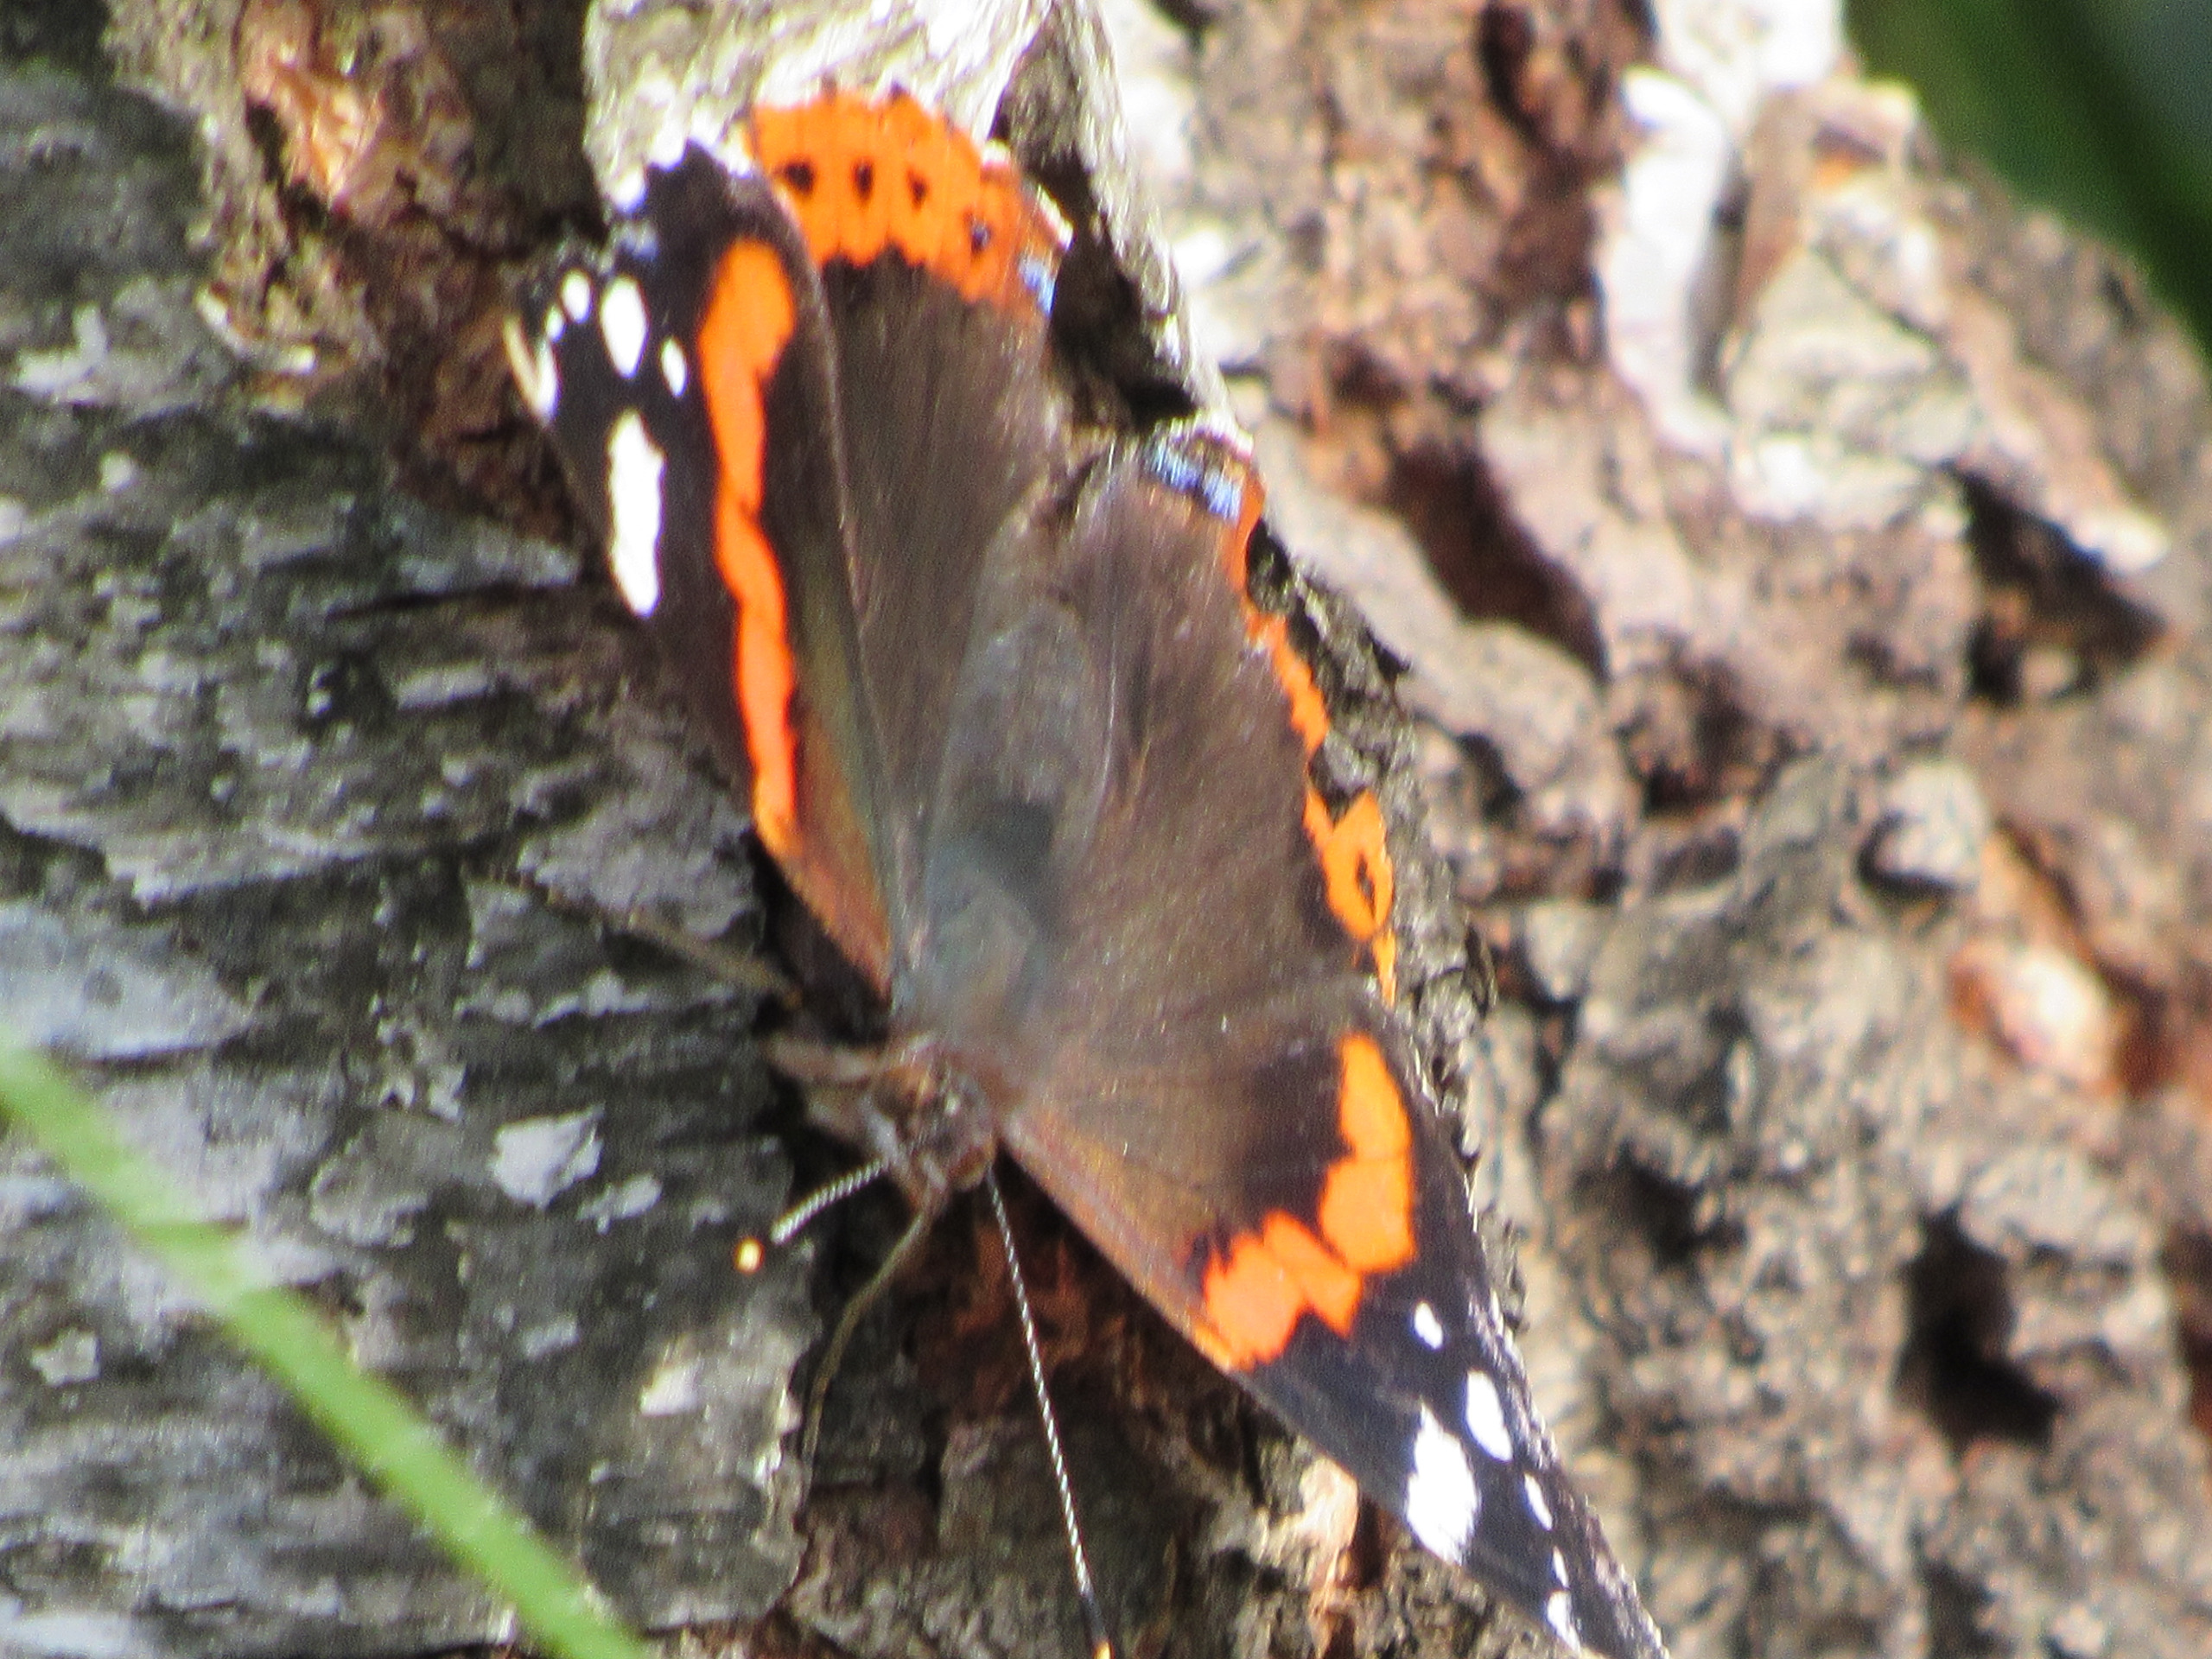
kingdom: Animalia
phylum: Arthropoda
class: Insecta
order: Lepidoptera
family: Nymphalidae
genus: Vanessa
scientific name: Vanessa atalanta
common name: Admiral
